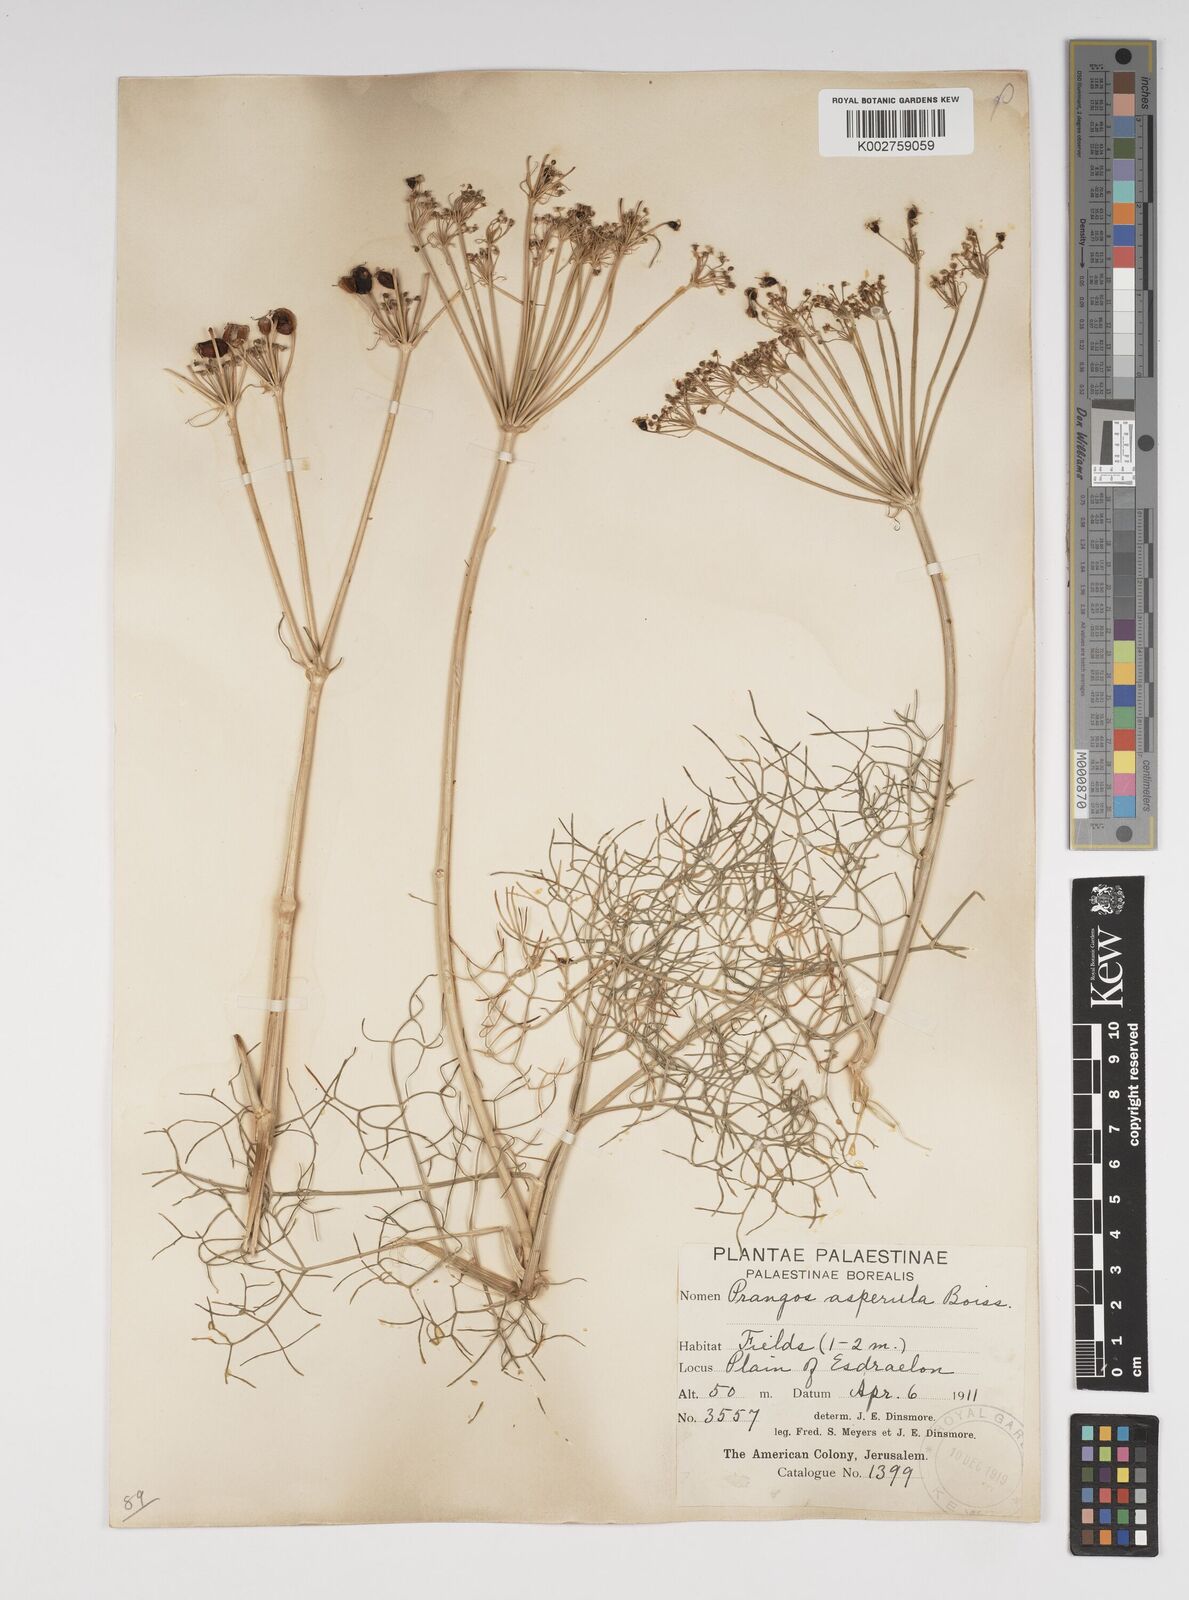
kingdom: Plantae
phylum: Tracheophyta
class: Magnoliopsida
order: Apiales
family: Apiaceae
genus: Prangos
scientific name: Prangos asperula
